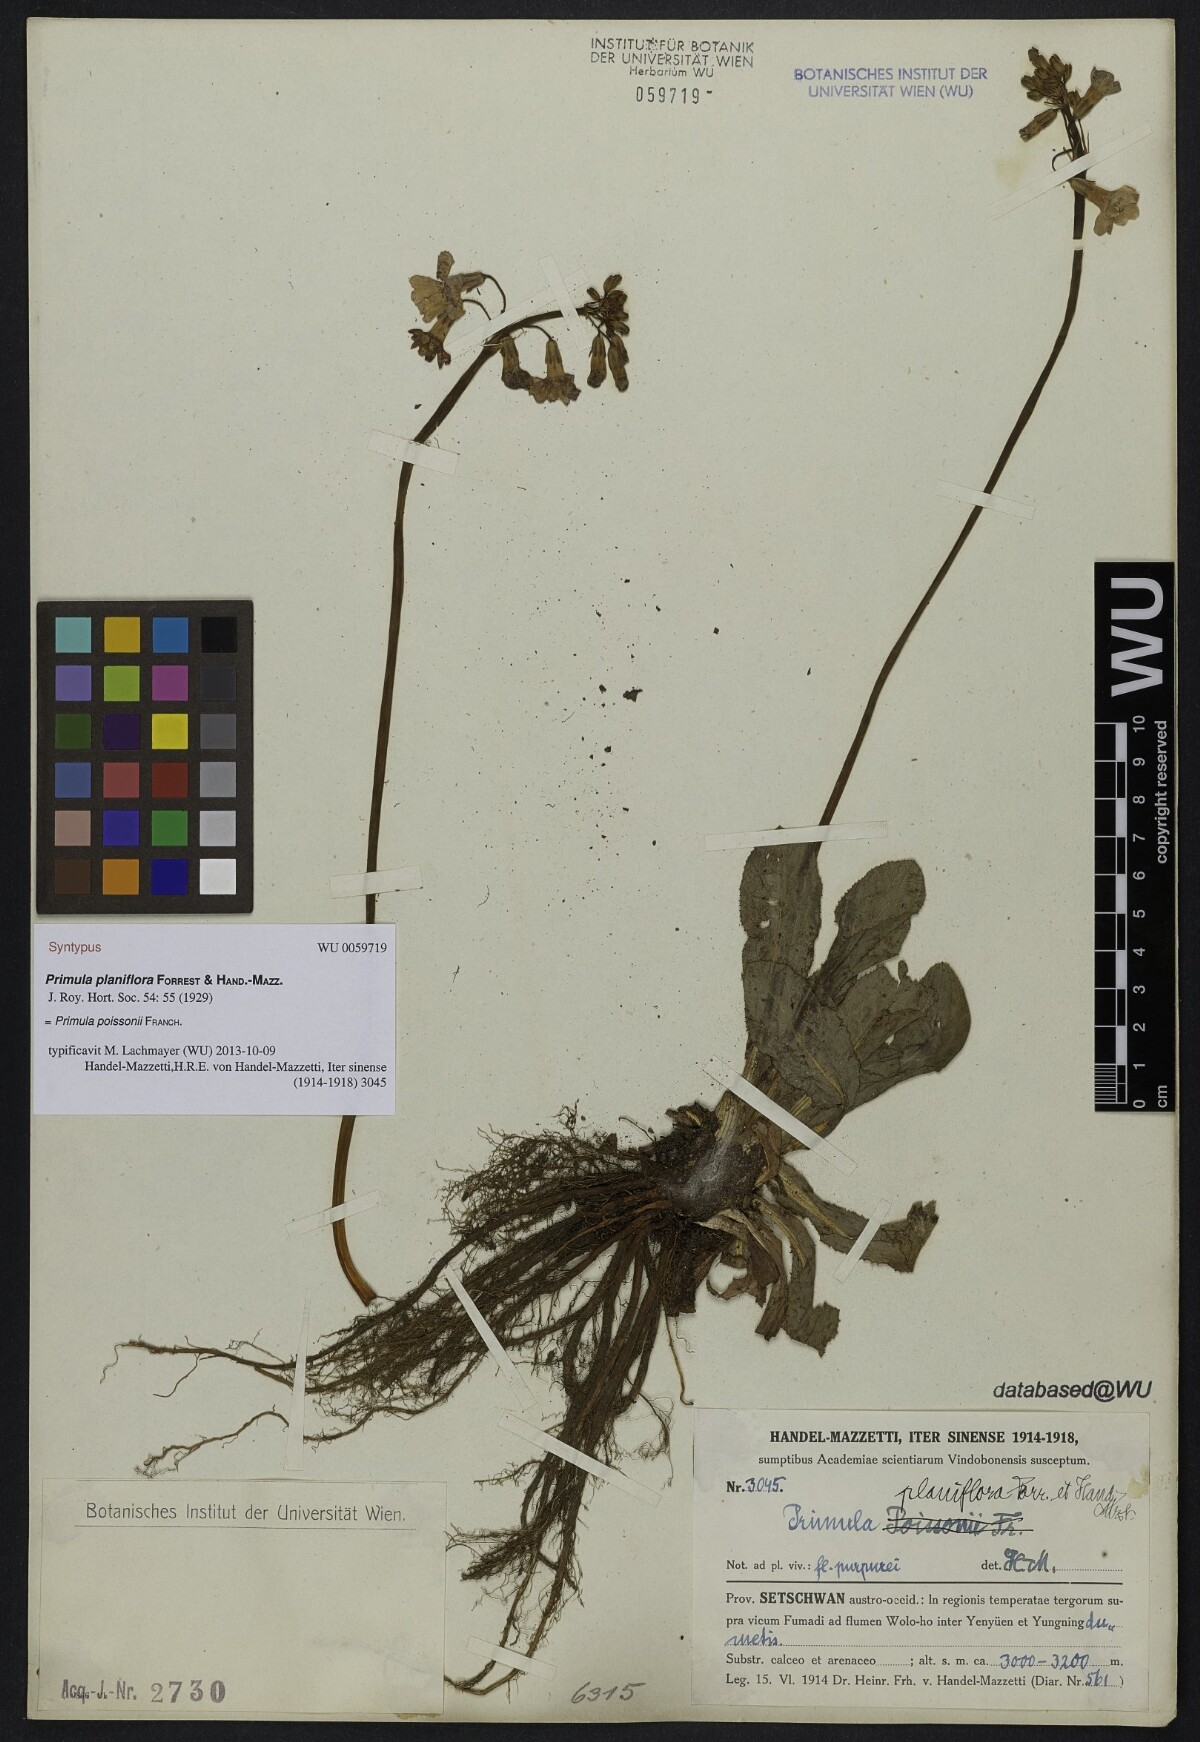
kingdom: Plantae
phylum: Tracheophyta
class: Magnoliopsida
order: Ericales
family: Primulaceae
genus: Primula
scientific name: Primula poissonii
